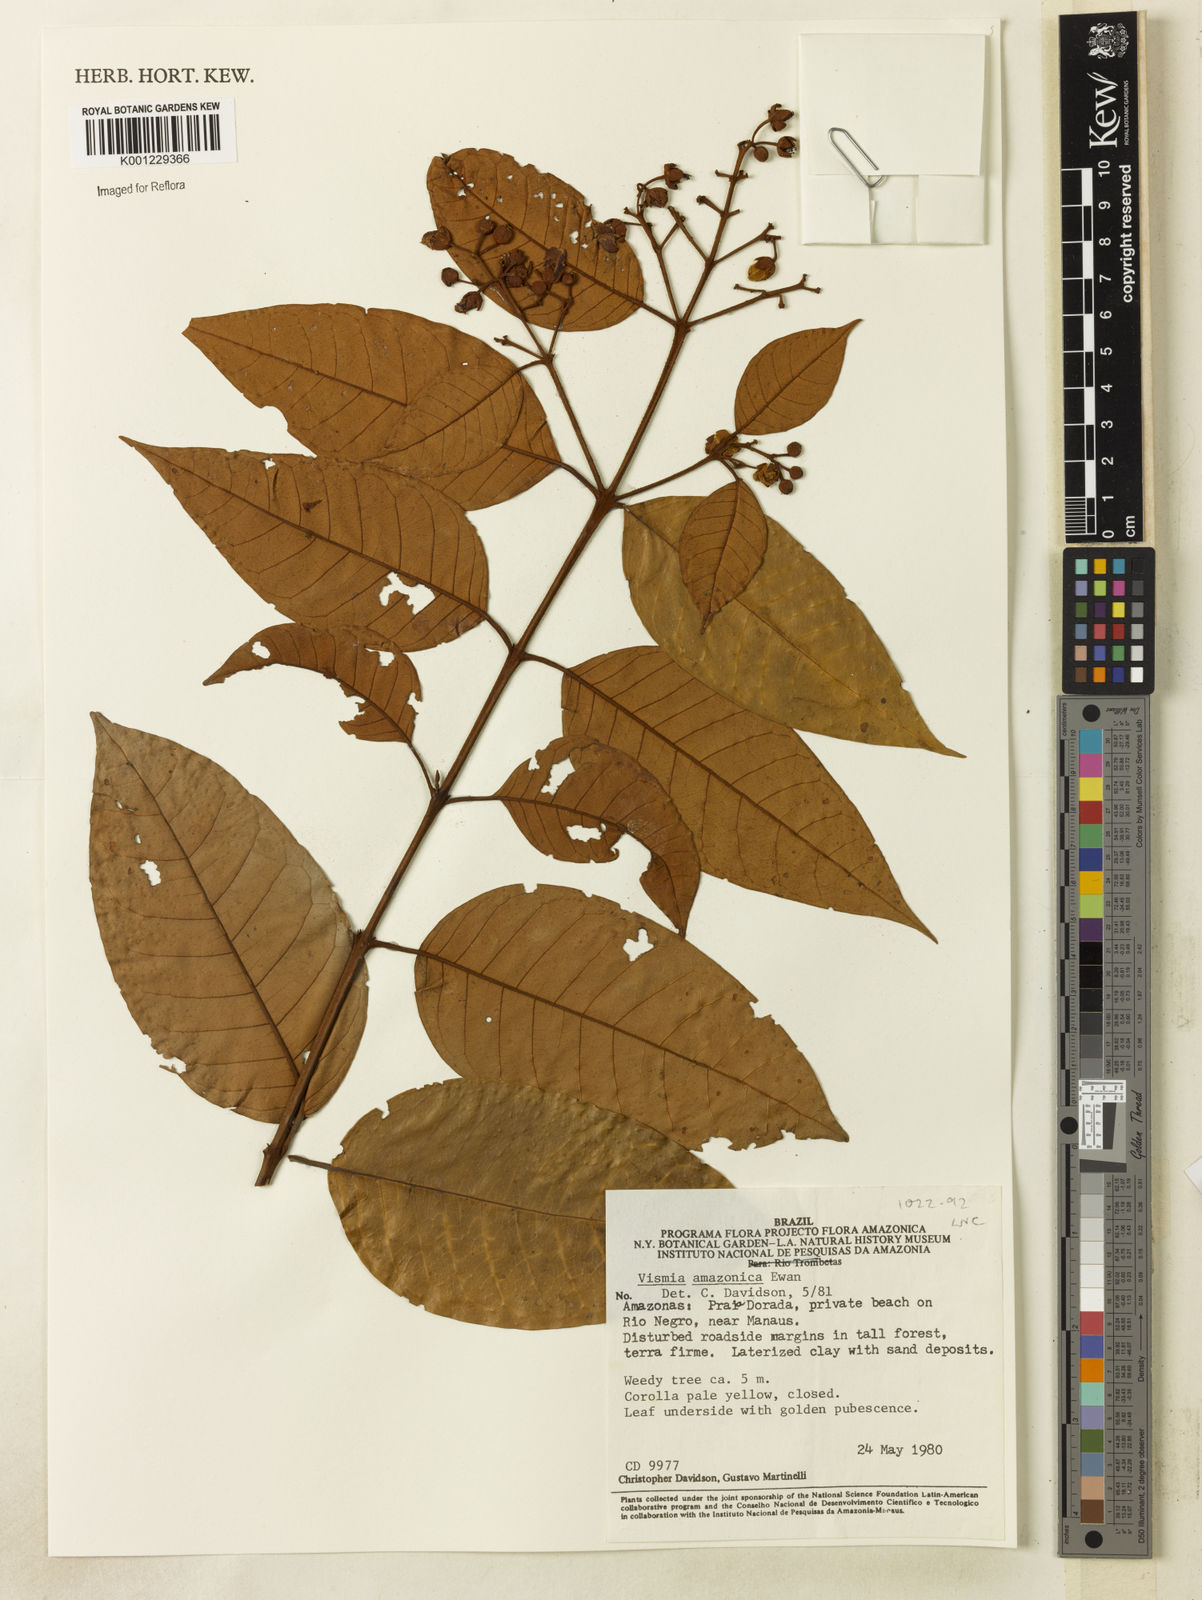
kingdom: Plantae
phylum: Tracheophyta
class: Magnoliopsida
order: Malpighiales
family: Hypericaceae
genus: Vismia
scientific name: Vismia gracilis
